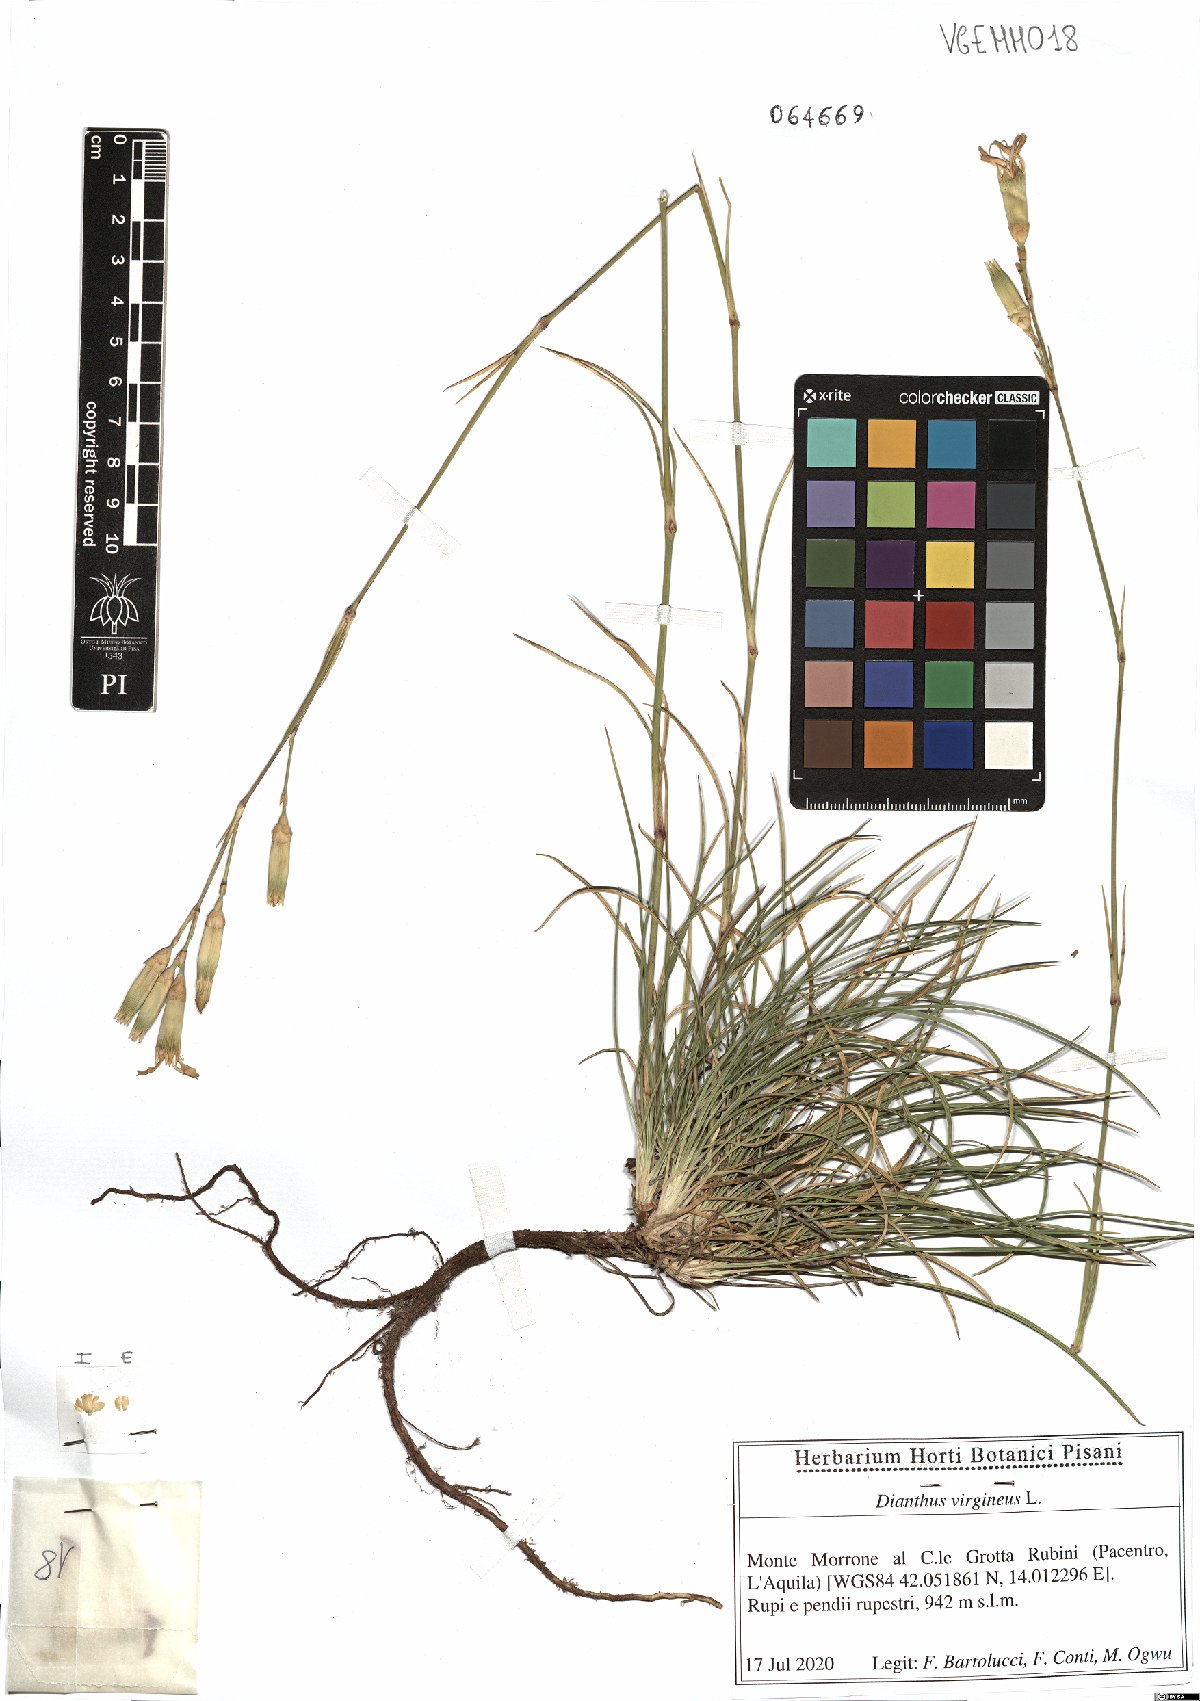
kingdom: Plantae
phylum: Tracheophyta
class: Magnoliopsida
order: Caryophyllales
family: Caryophyllaceae
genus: Dianthus
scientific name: Dianthus virgineus
